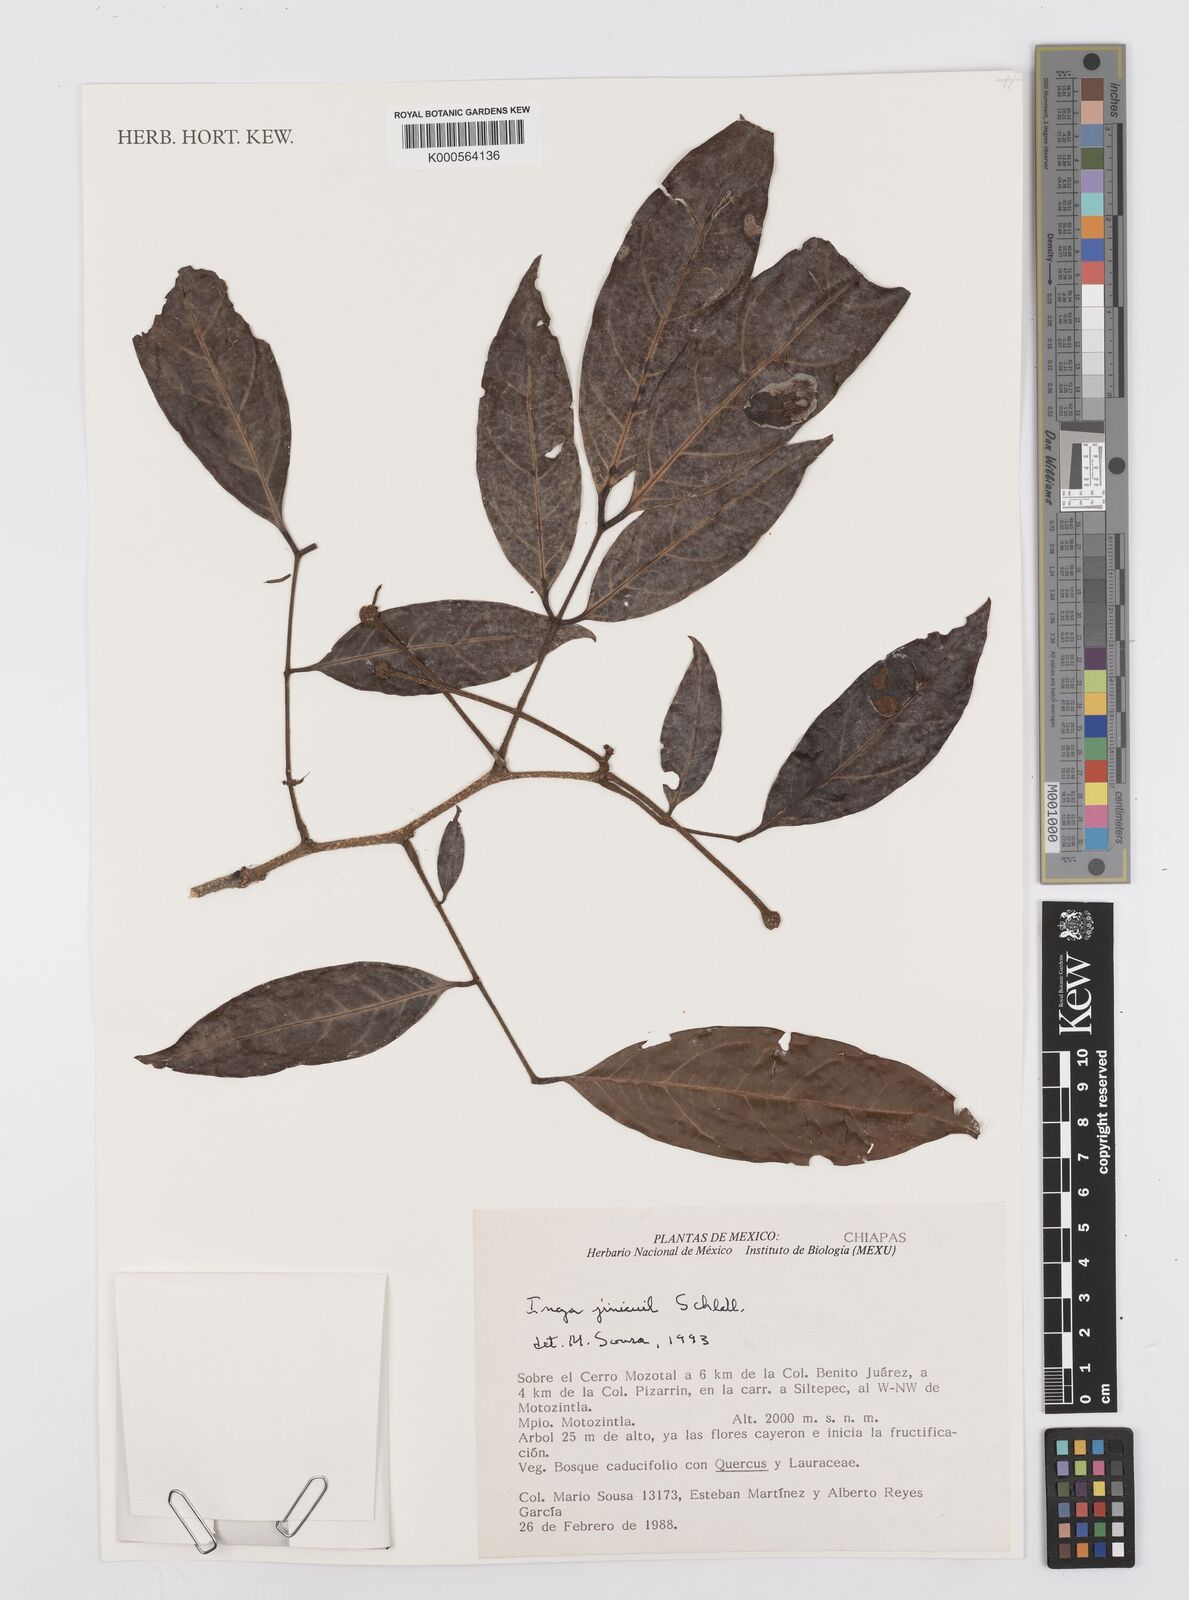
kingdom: Plantae
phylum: Tracheophyta
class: Magnoliopsida
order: Fabales
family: Fabaceae
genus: Inga
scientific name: Inga inicuil
